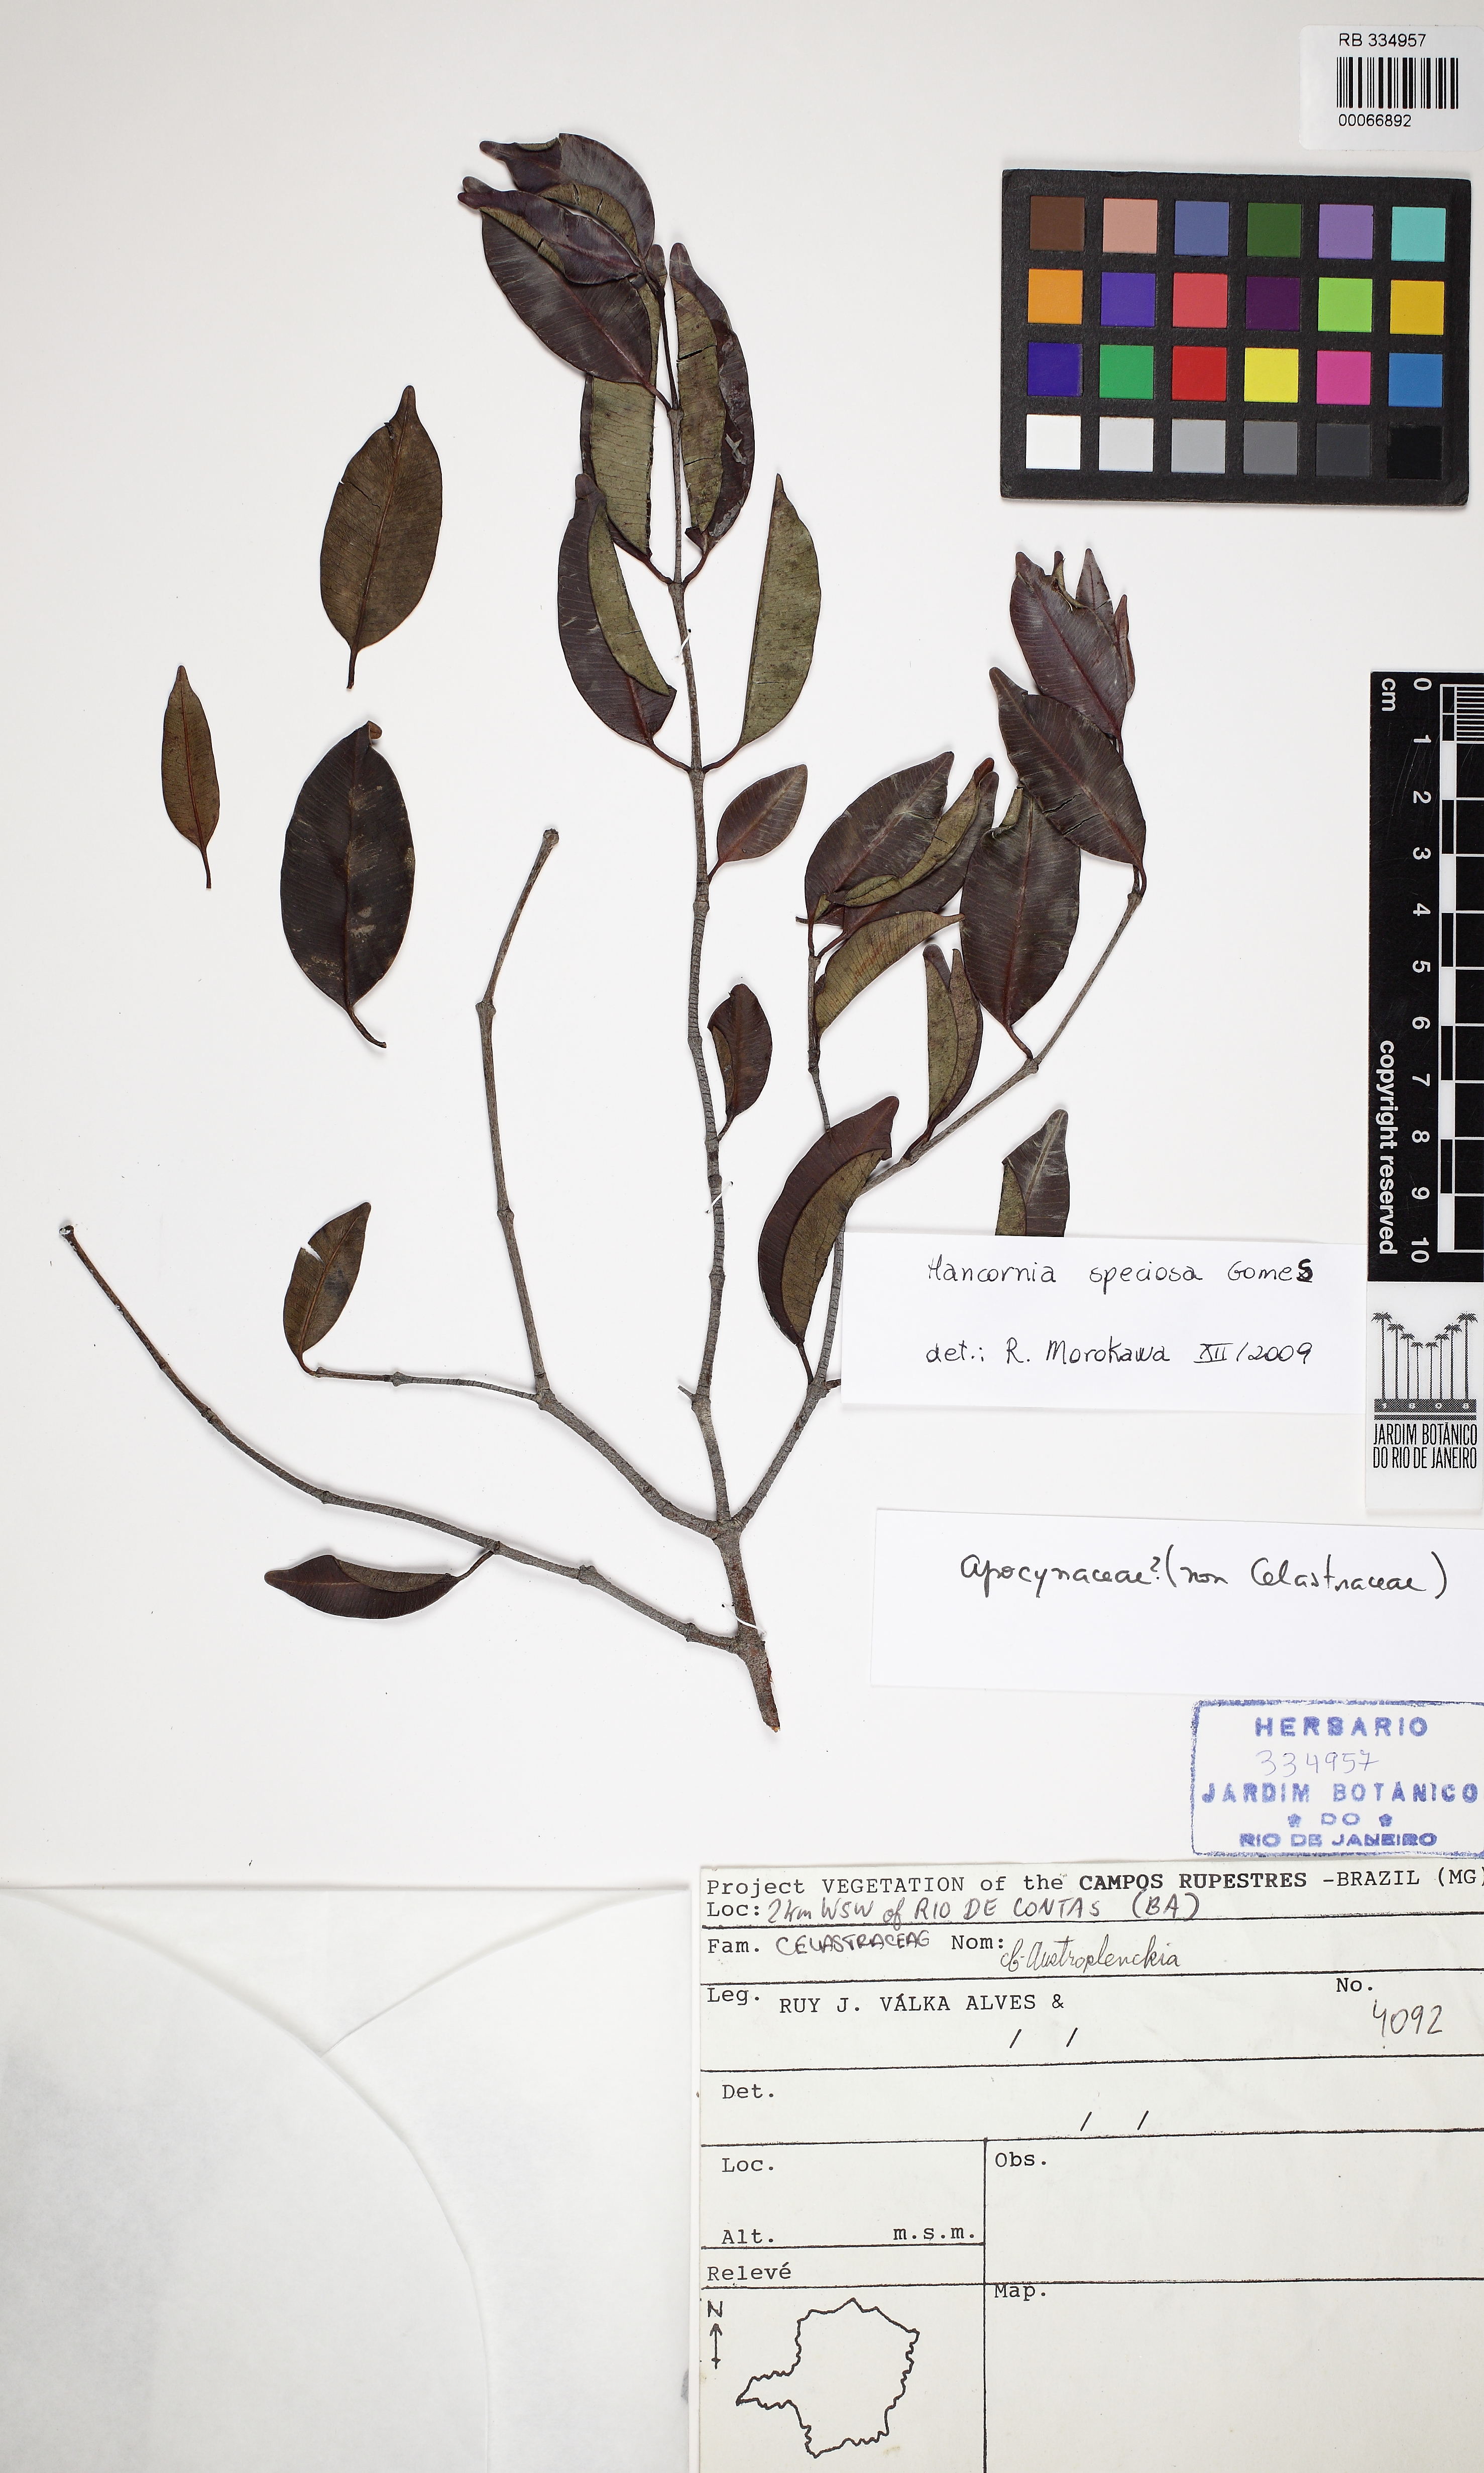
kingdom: Plantae
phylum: Tracheophyta
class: Magnoliopsida
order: Gentianales
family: Apocynaceae
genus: Hancornia
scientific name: Hancornia speciosa
